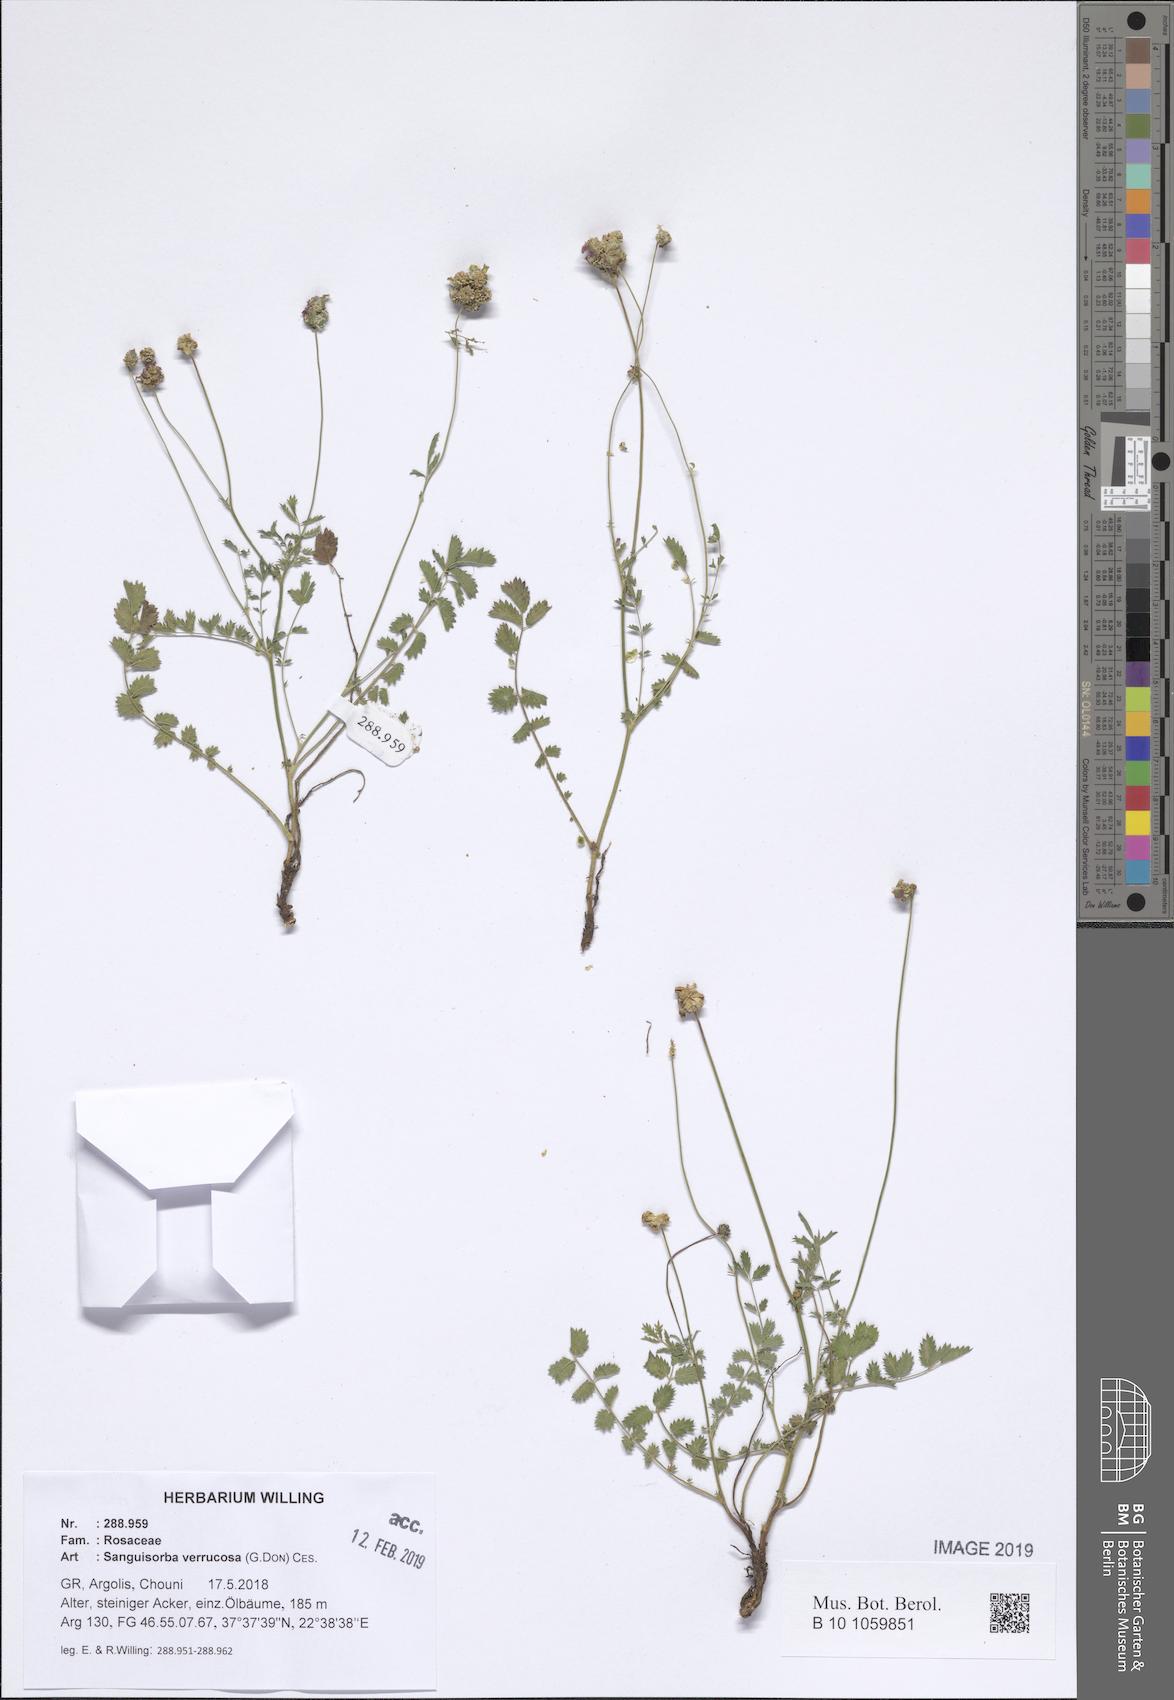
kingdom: Plantae
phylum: Tracheophyta
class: Magnoliopsida
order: Rosales
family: Rosaceae
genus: Poterium
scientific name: Poterium verrucosum
